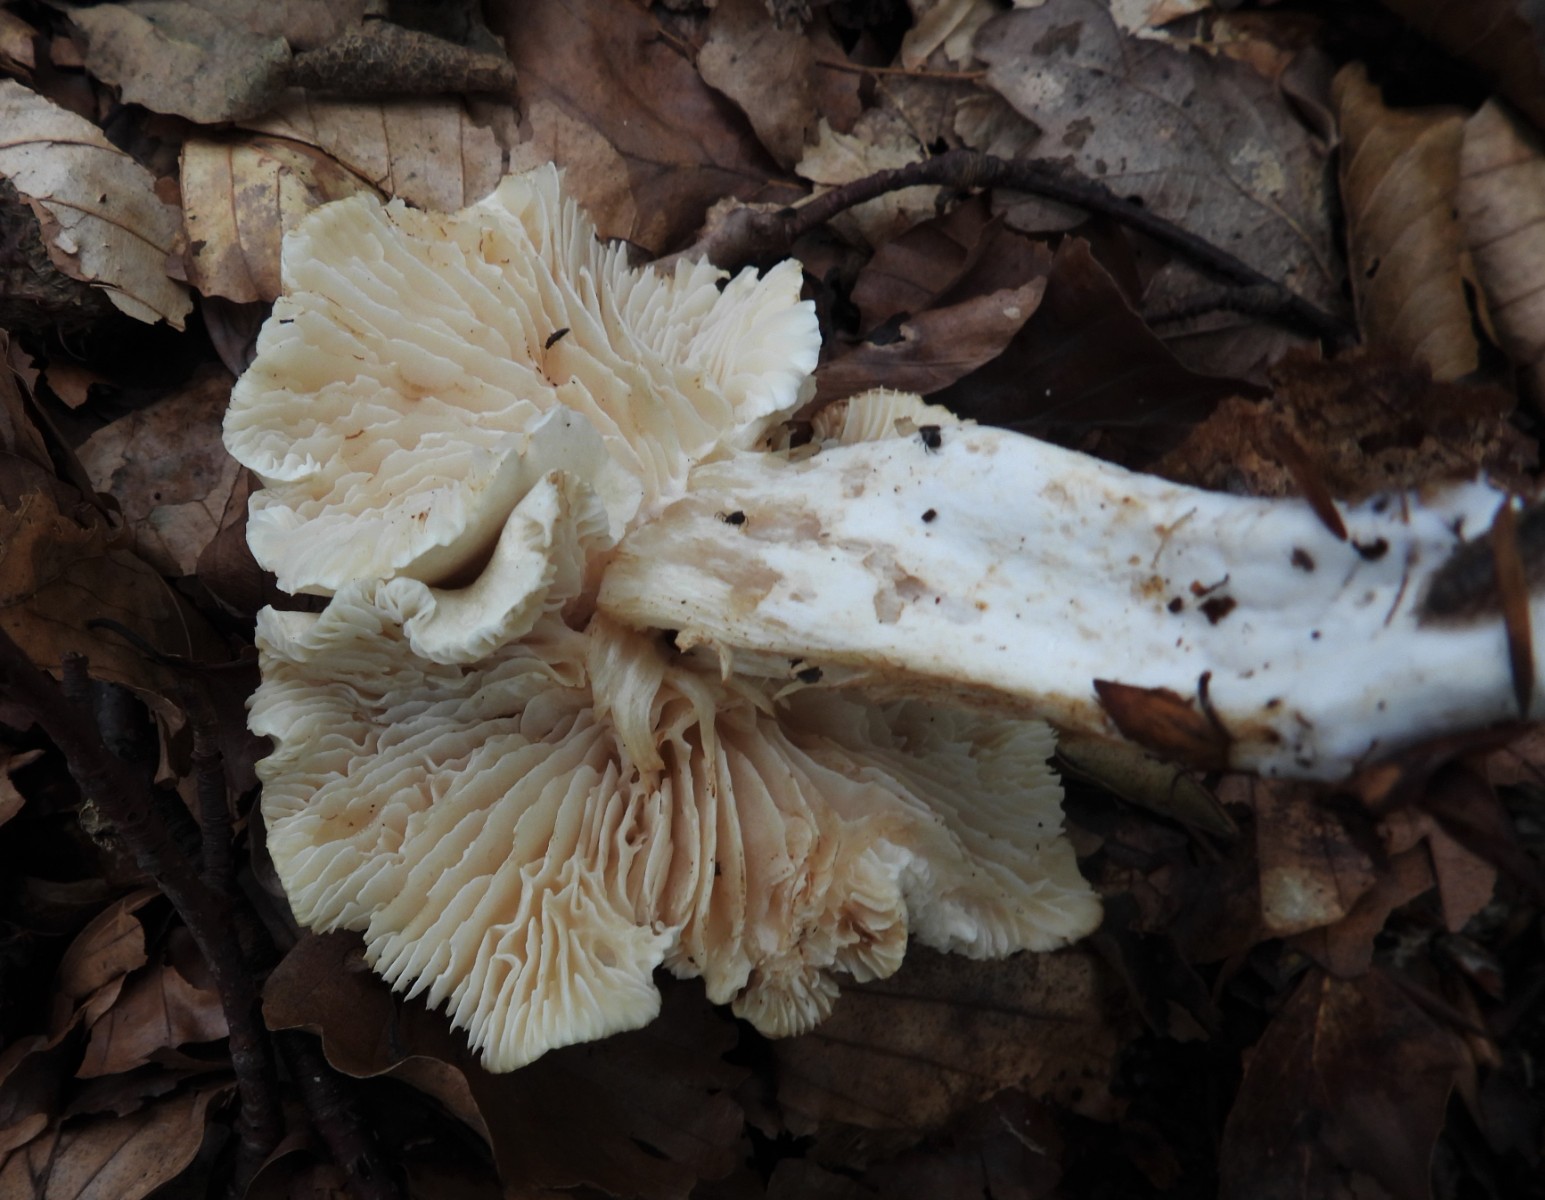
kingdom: Fungi
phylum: Basidiomycota
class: Agaricomycetes
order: Agaricales
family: Tricholomataceae
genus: Tricholoma
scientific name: Tricholoma lascivum
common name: stinkende ridderhat
